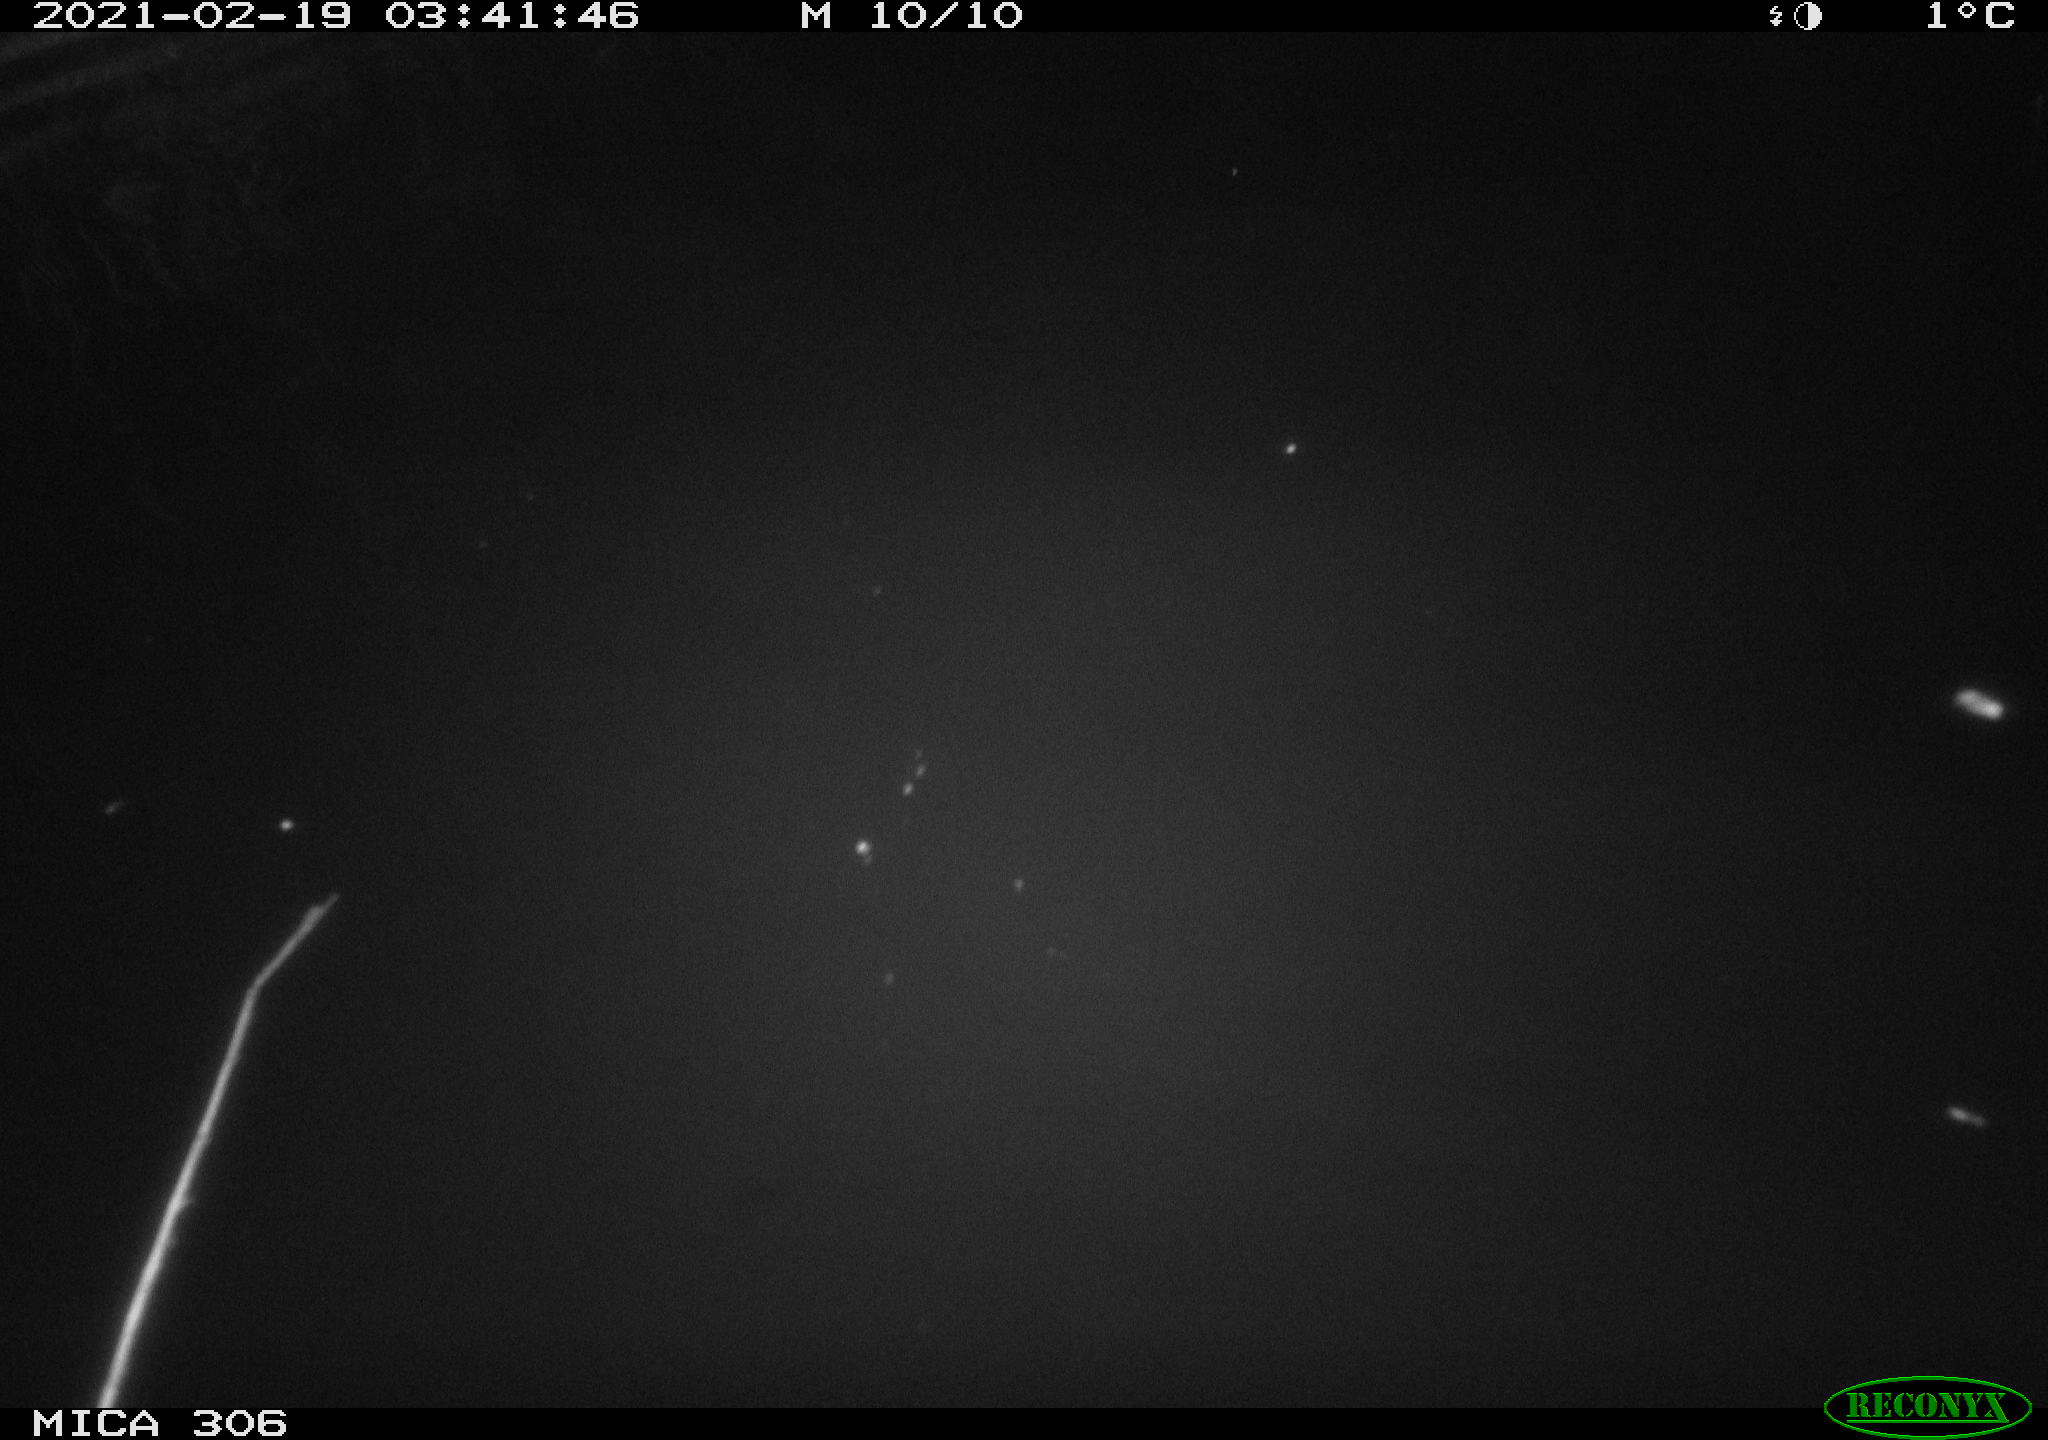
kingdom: Animalia
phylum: Chordata
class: Mammalia
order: Rodentia
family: Cricetidae
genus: Ondatra
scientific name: Ondatra zibethicus
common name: Muskrat
